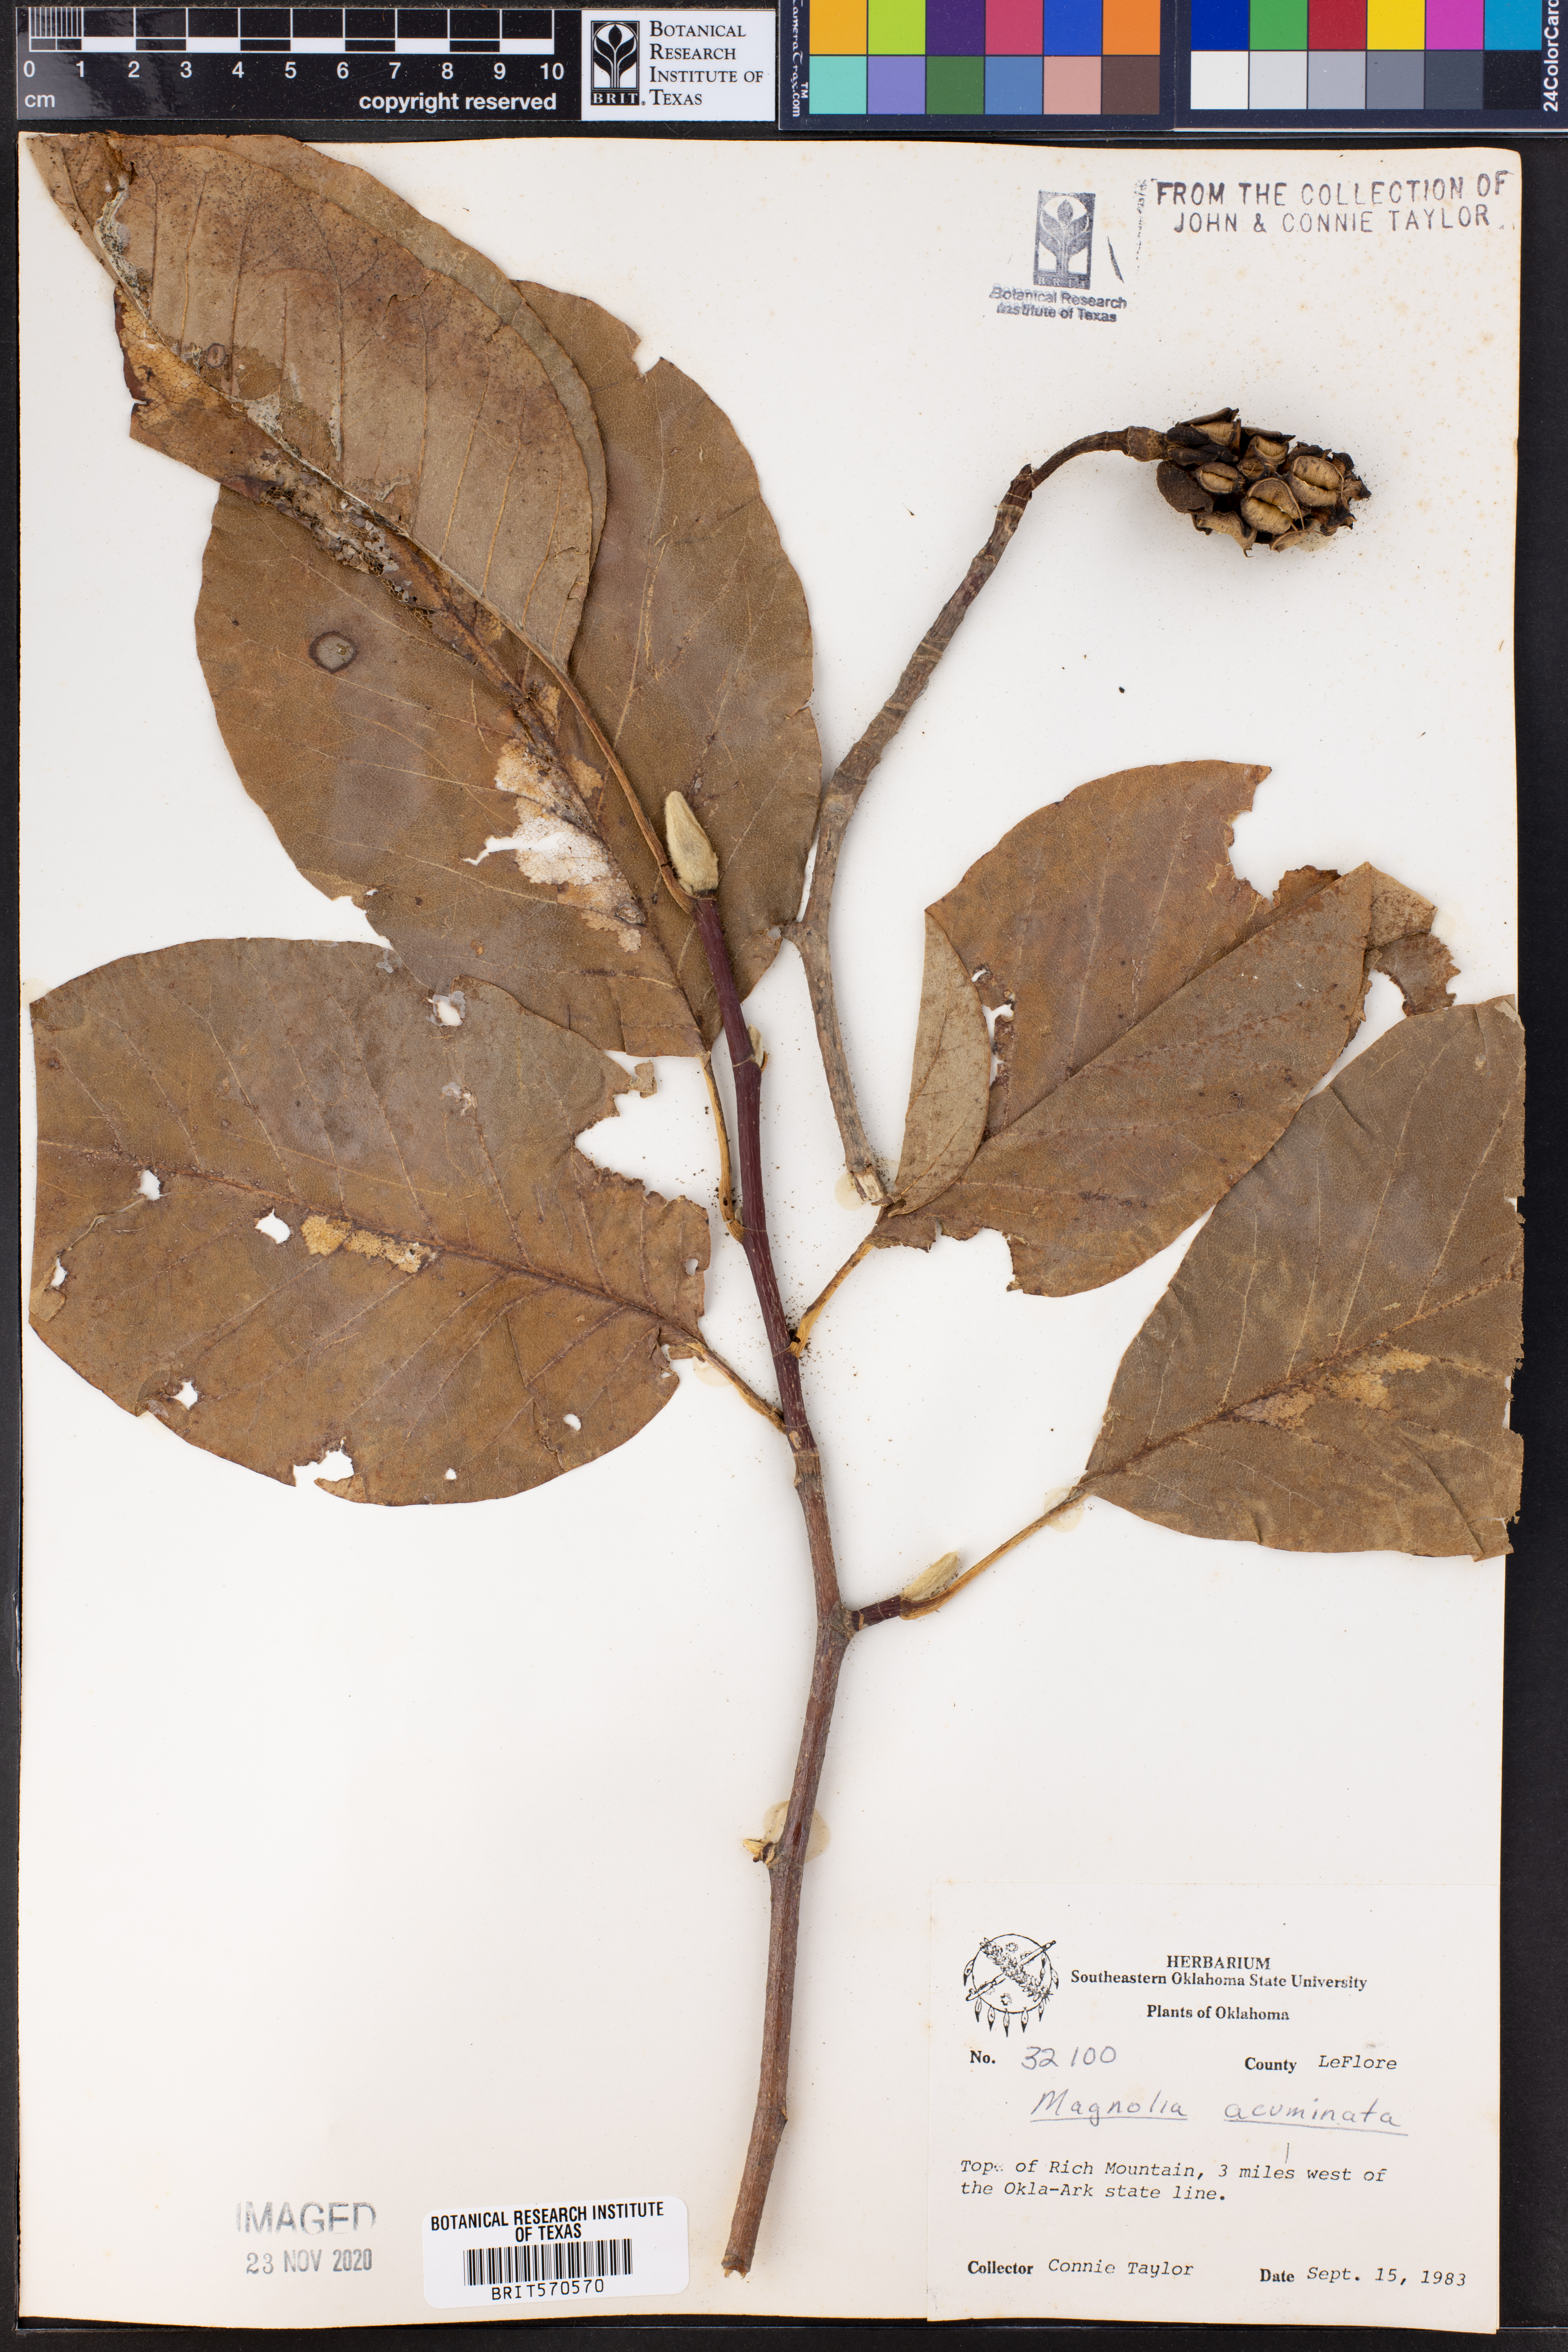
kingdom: Plantae
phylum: Tracheophyta
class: Magnoliopsida
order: Magnoliales
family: Magnoliaceae
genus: Magnolia
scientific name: Magnolia acuminata
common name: Cucumber magnolia
